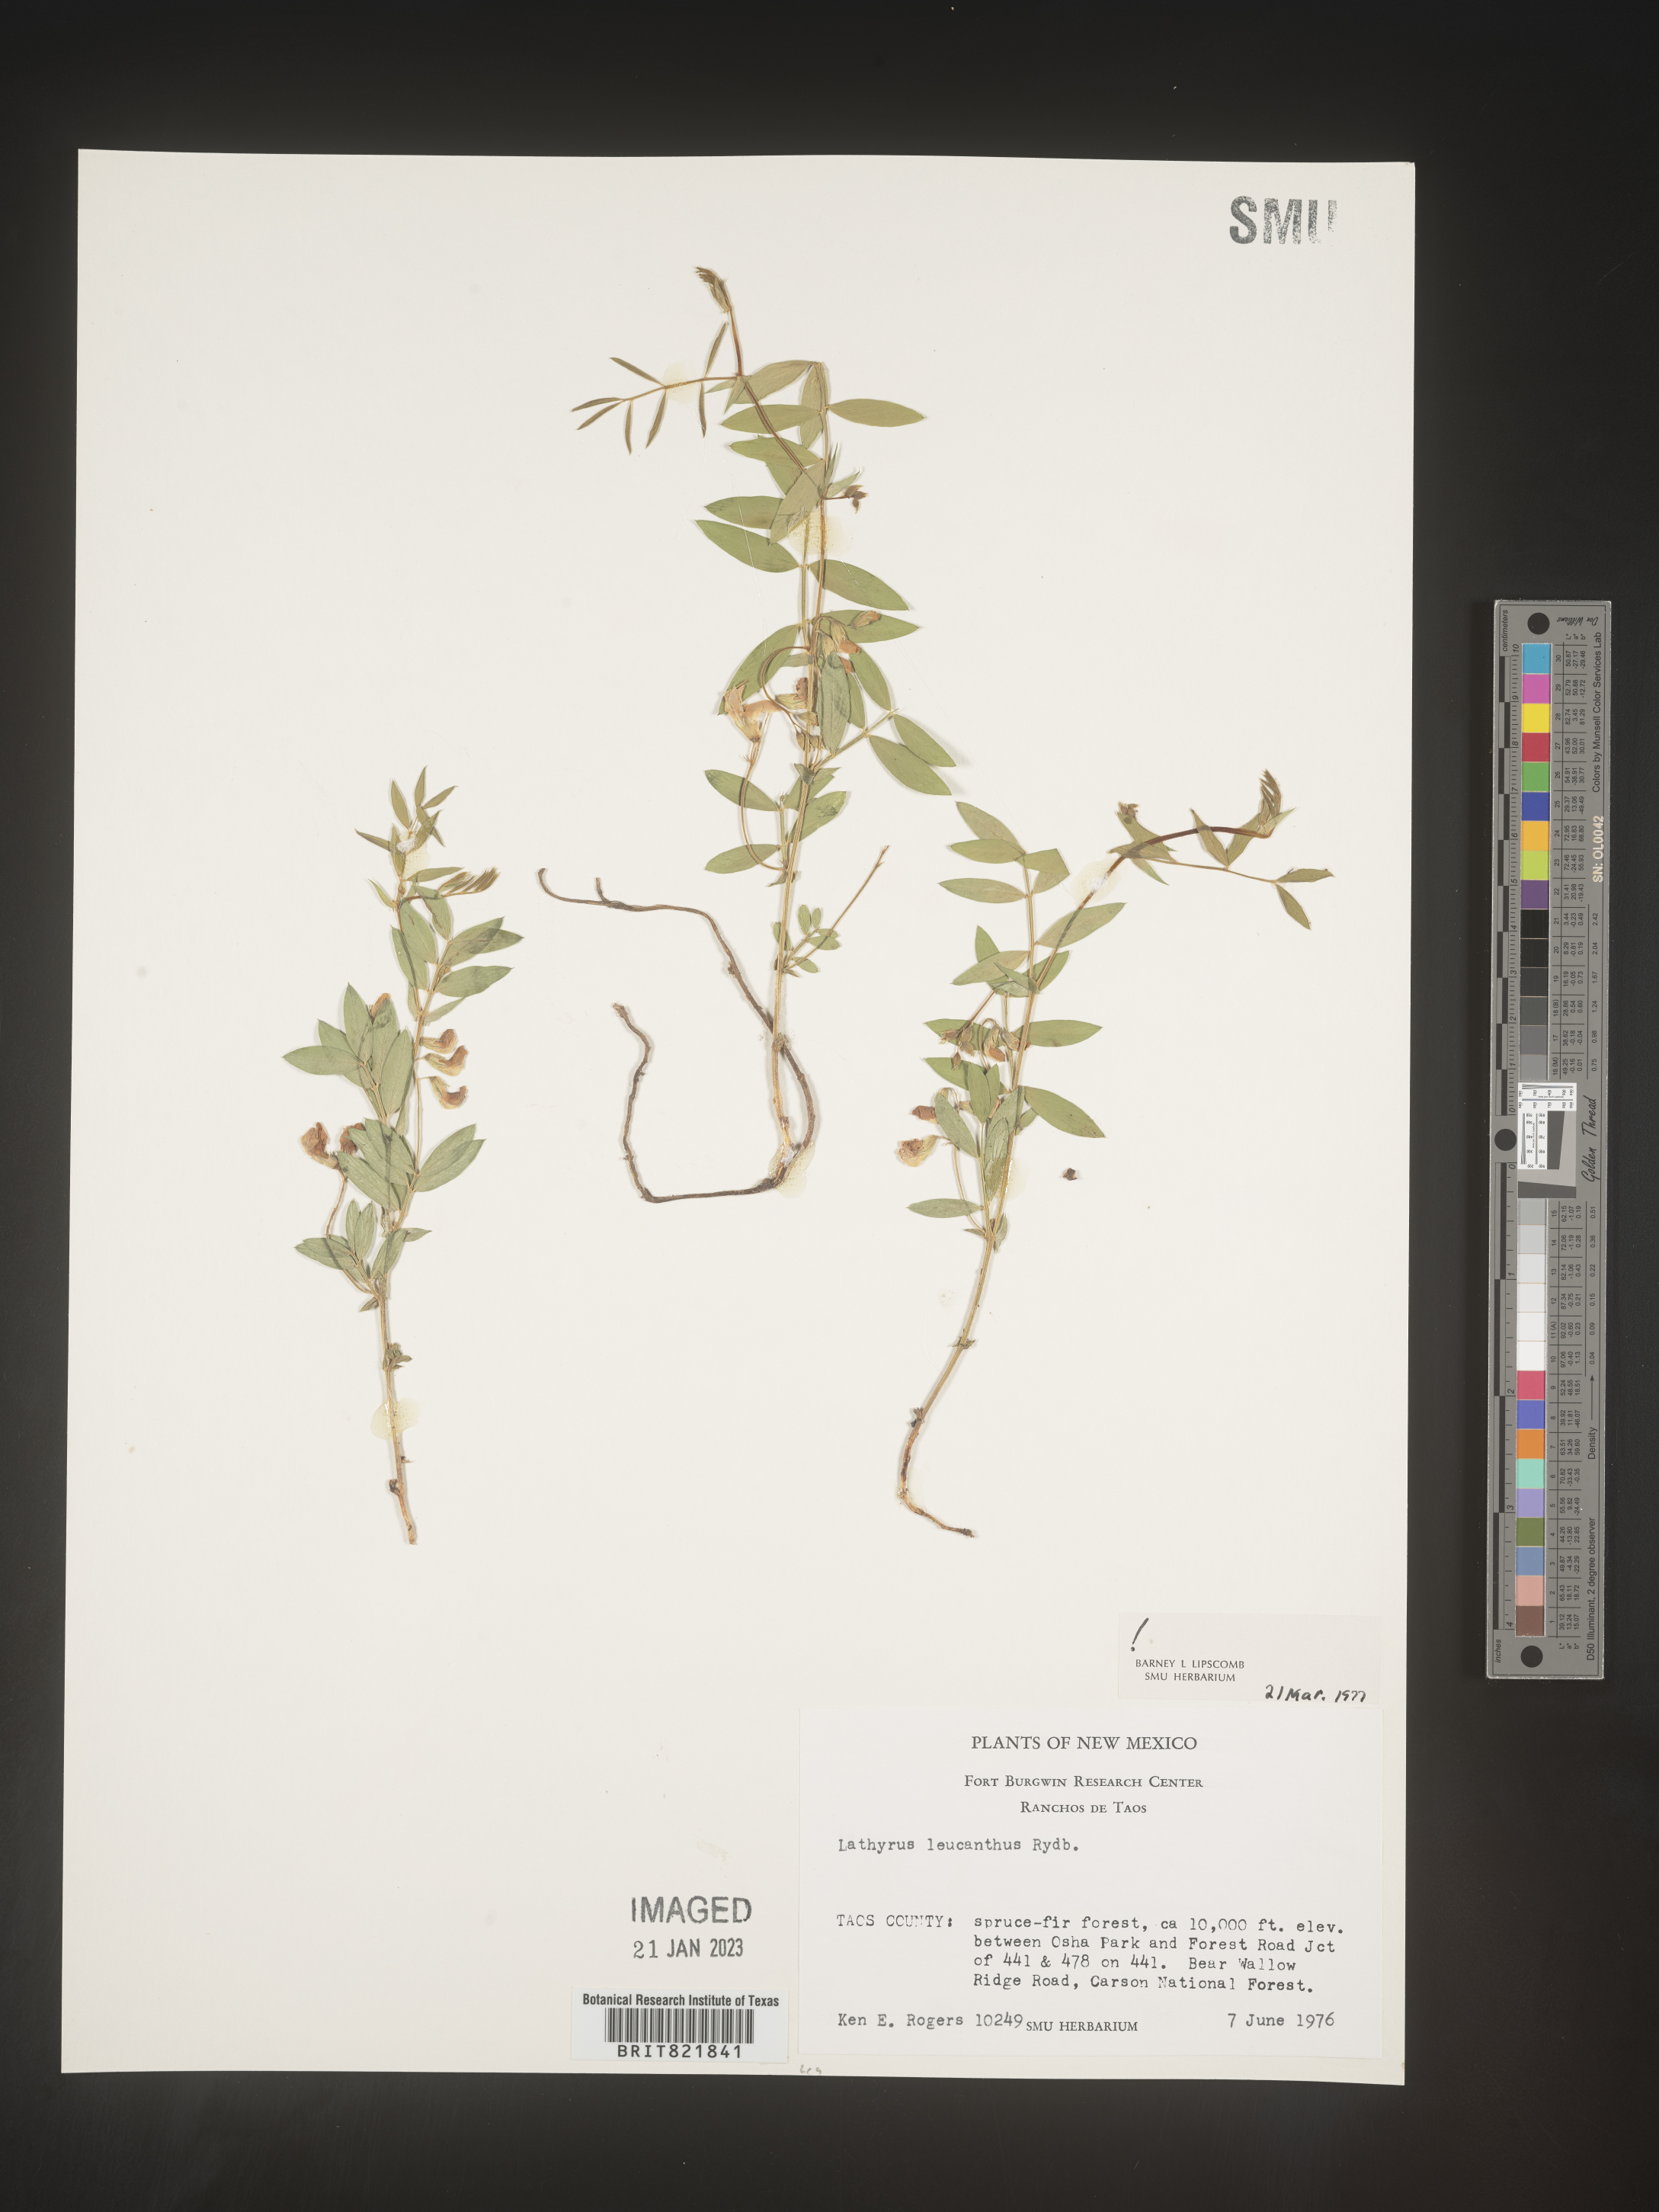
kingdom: Plantae
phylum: Tracheophyta
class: Magnoliopsida
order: Fabales
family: Fabaceae
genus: Lathyrus
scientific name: Lathyrus
